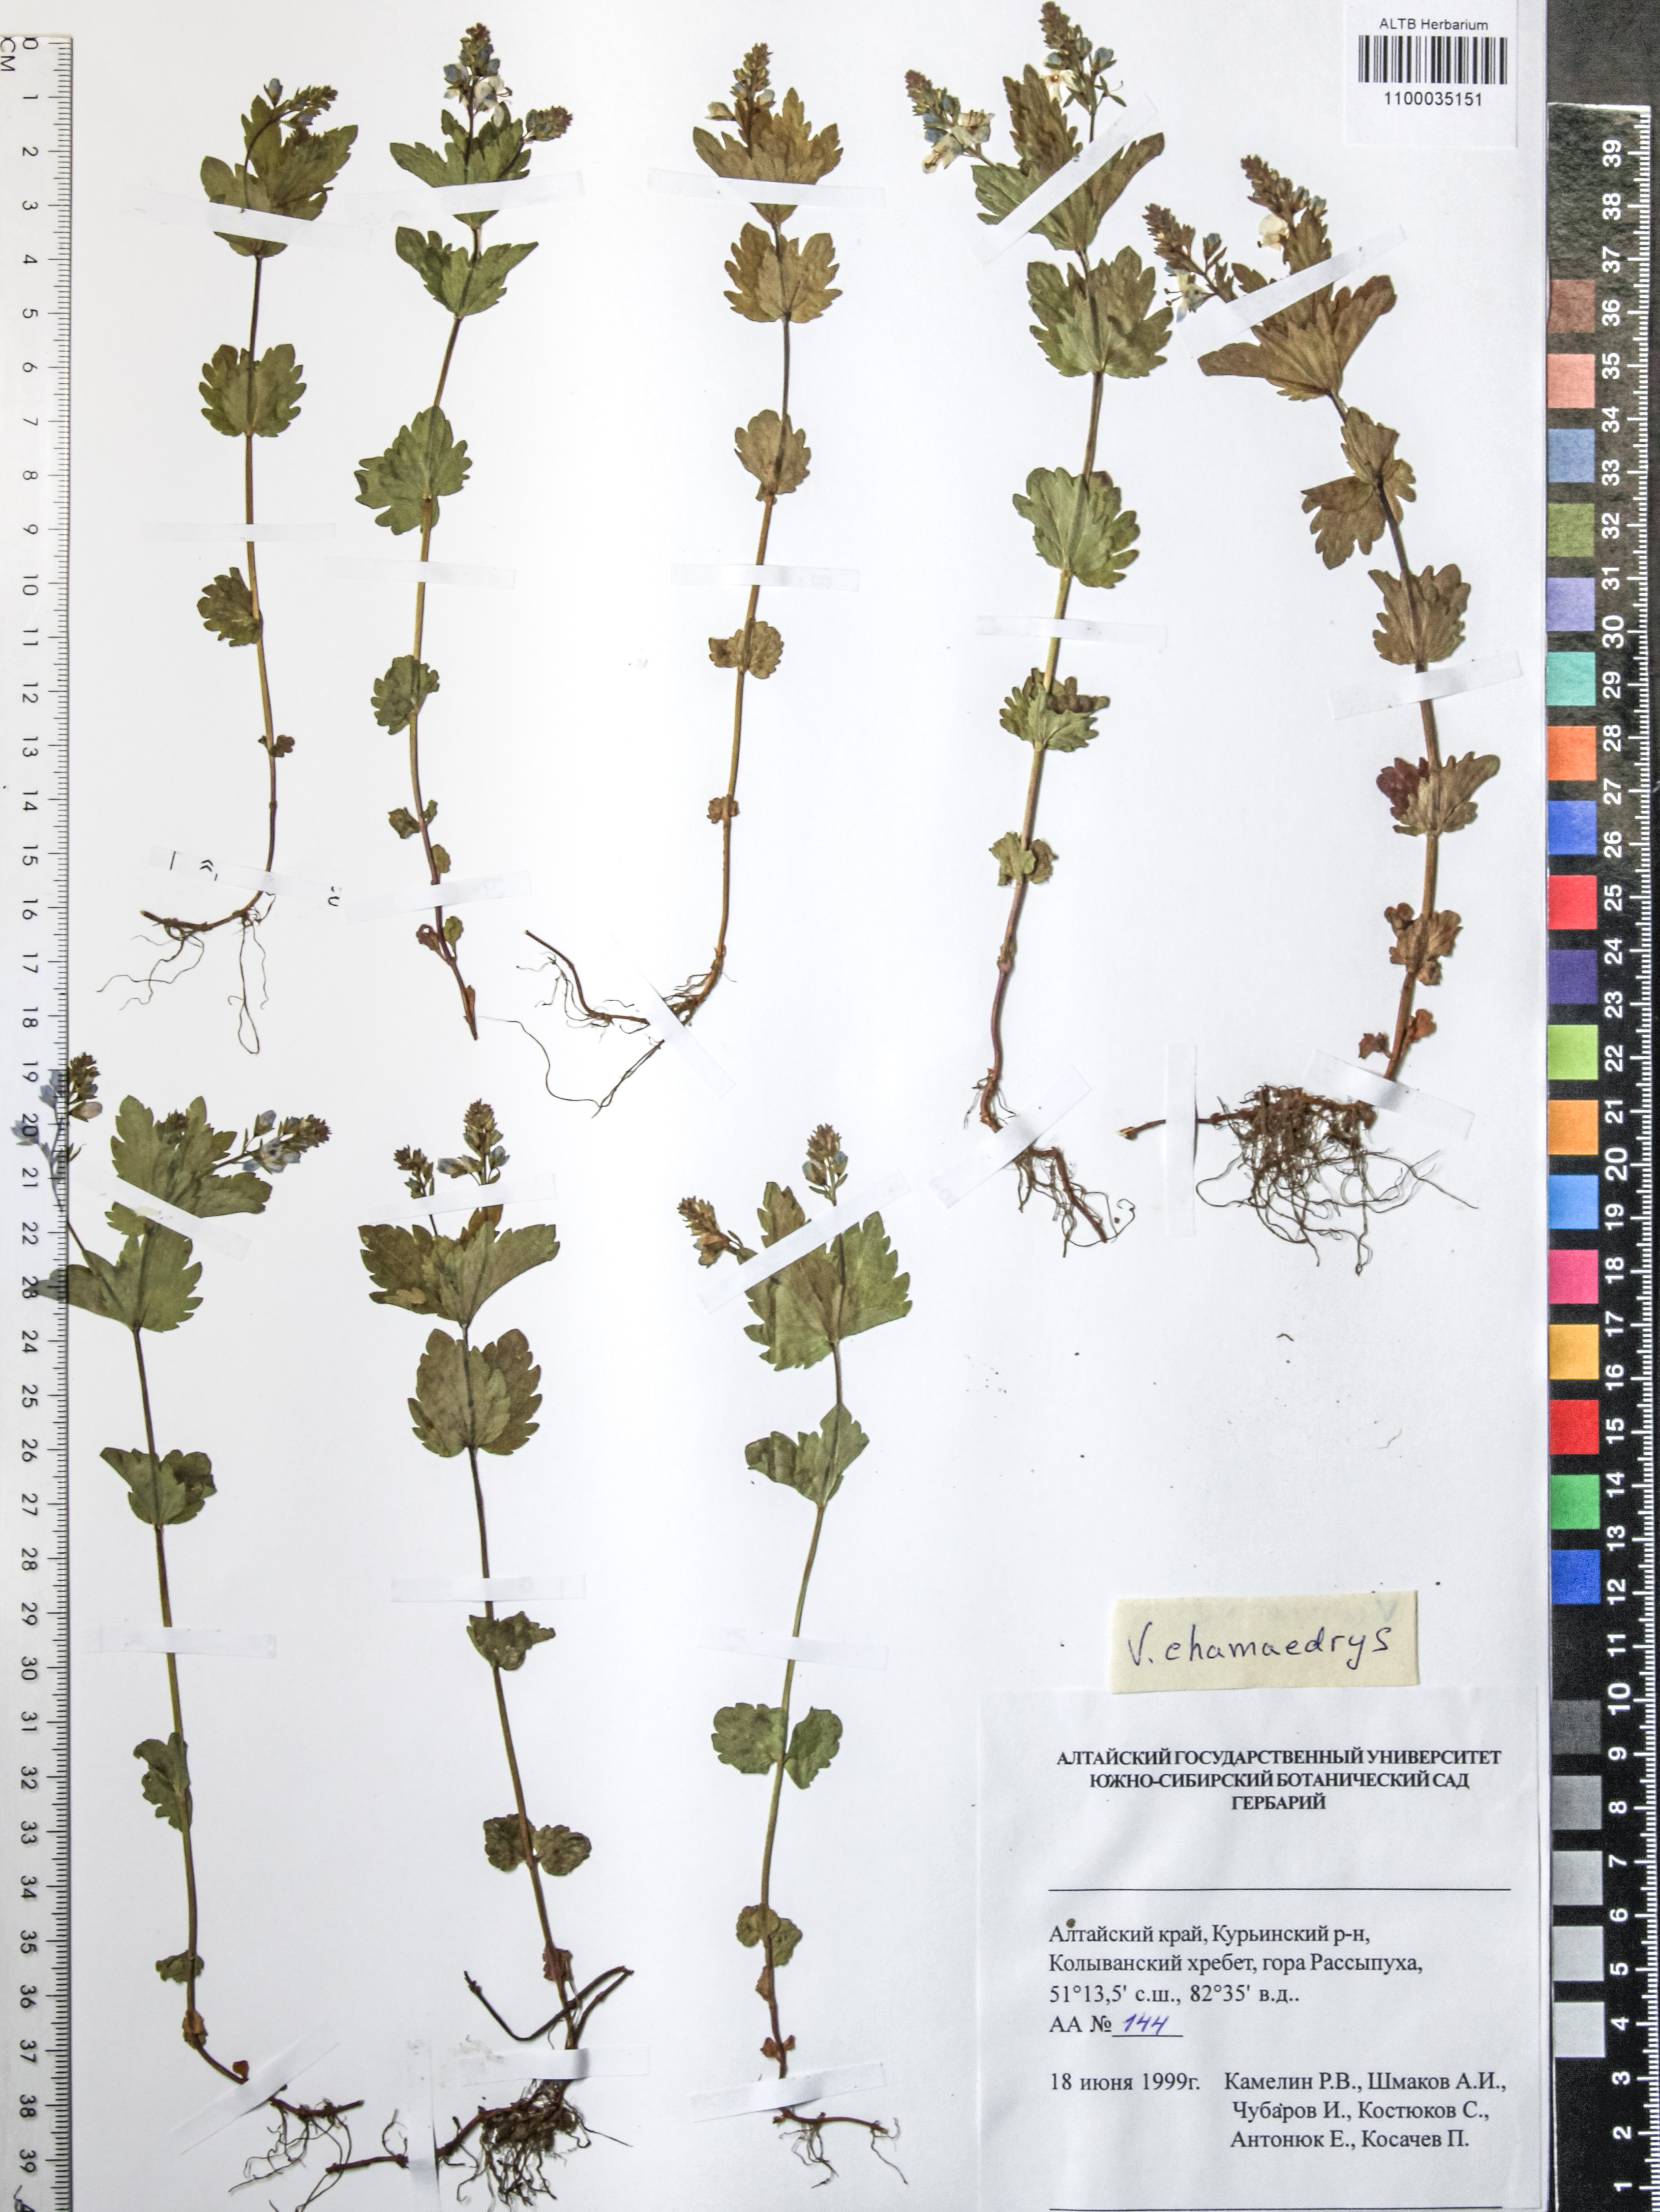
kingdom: Plantae
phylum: Tracheophyta
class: Magnoliopsida
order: Lamiales
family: Plantaginaceae
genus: Veronica
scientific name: Veronica chamaedrys
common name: Germander speedwell
